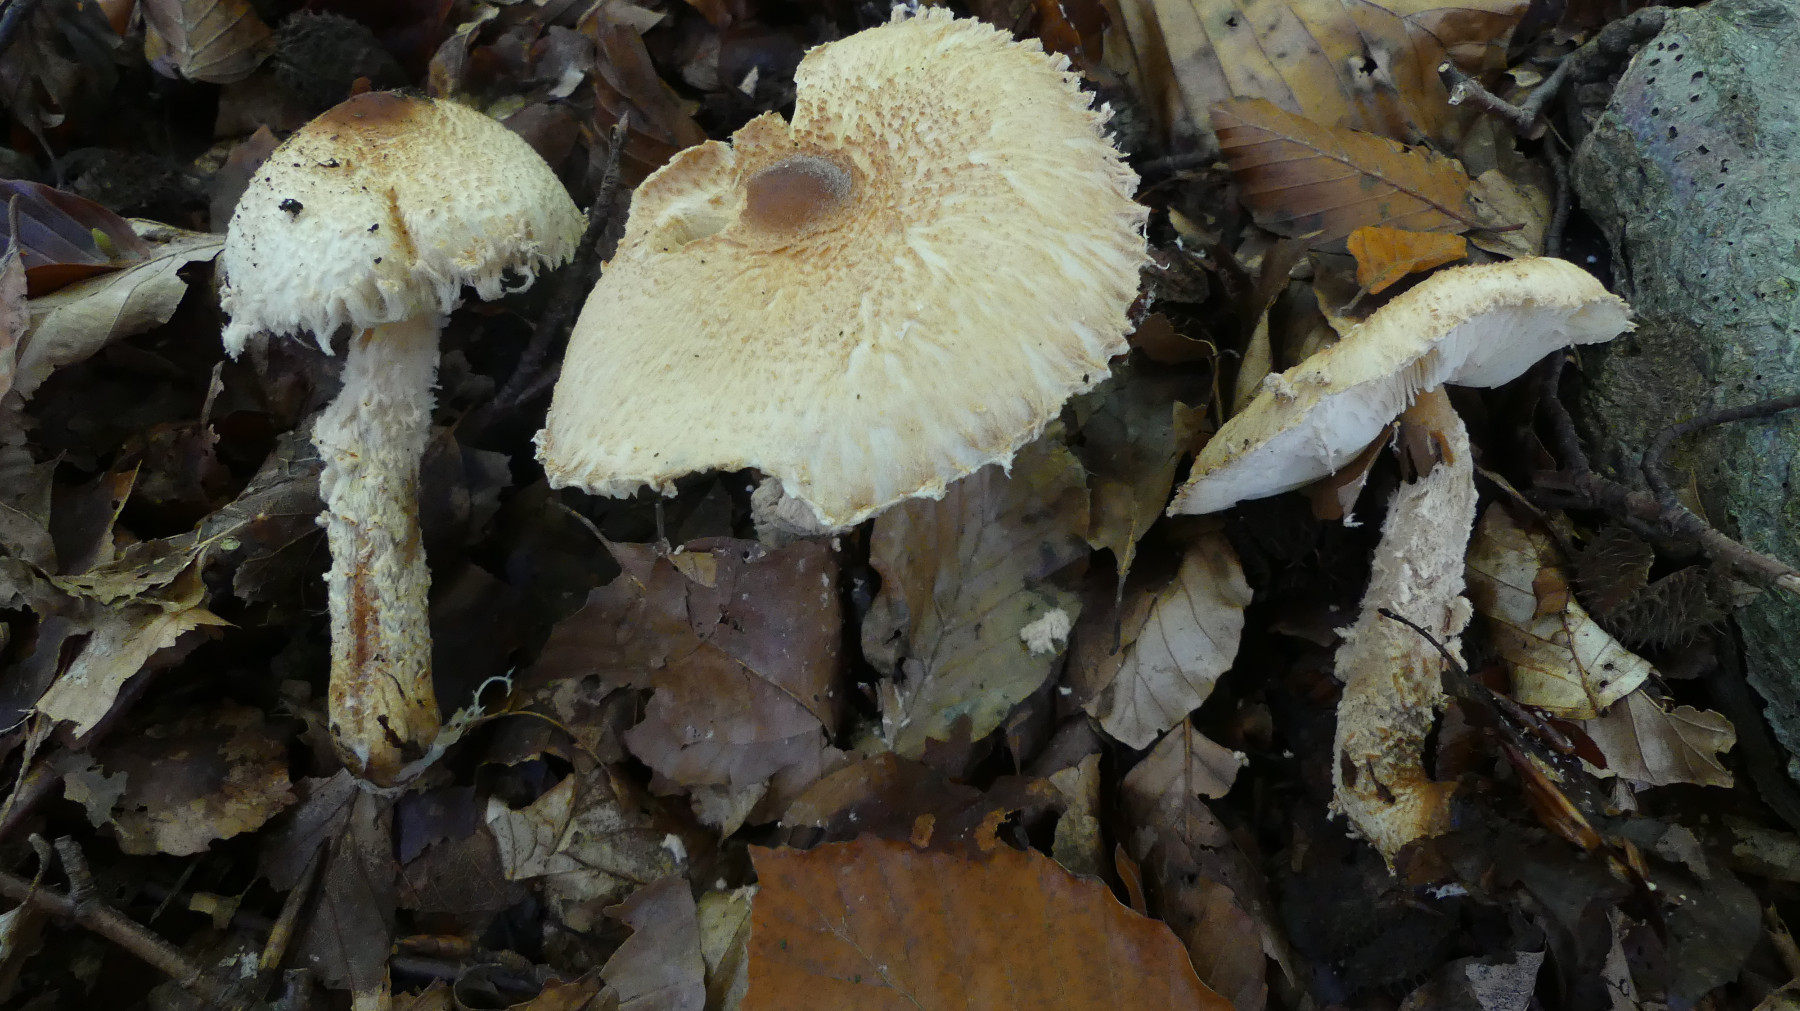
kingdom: Fungi
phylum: Basidiomycota
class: Agaricomycetes
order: Agaricales
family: Agaricaceae
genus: Lepiota
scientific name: Lepiota magnispora
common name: gulfnugget parasolhat
